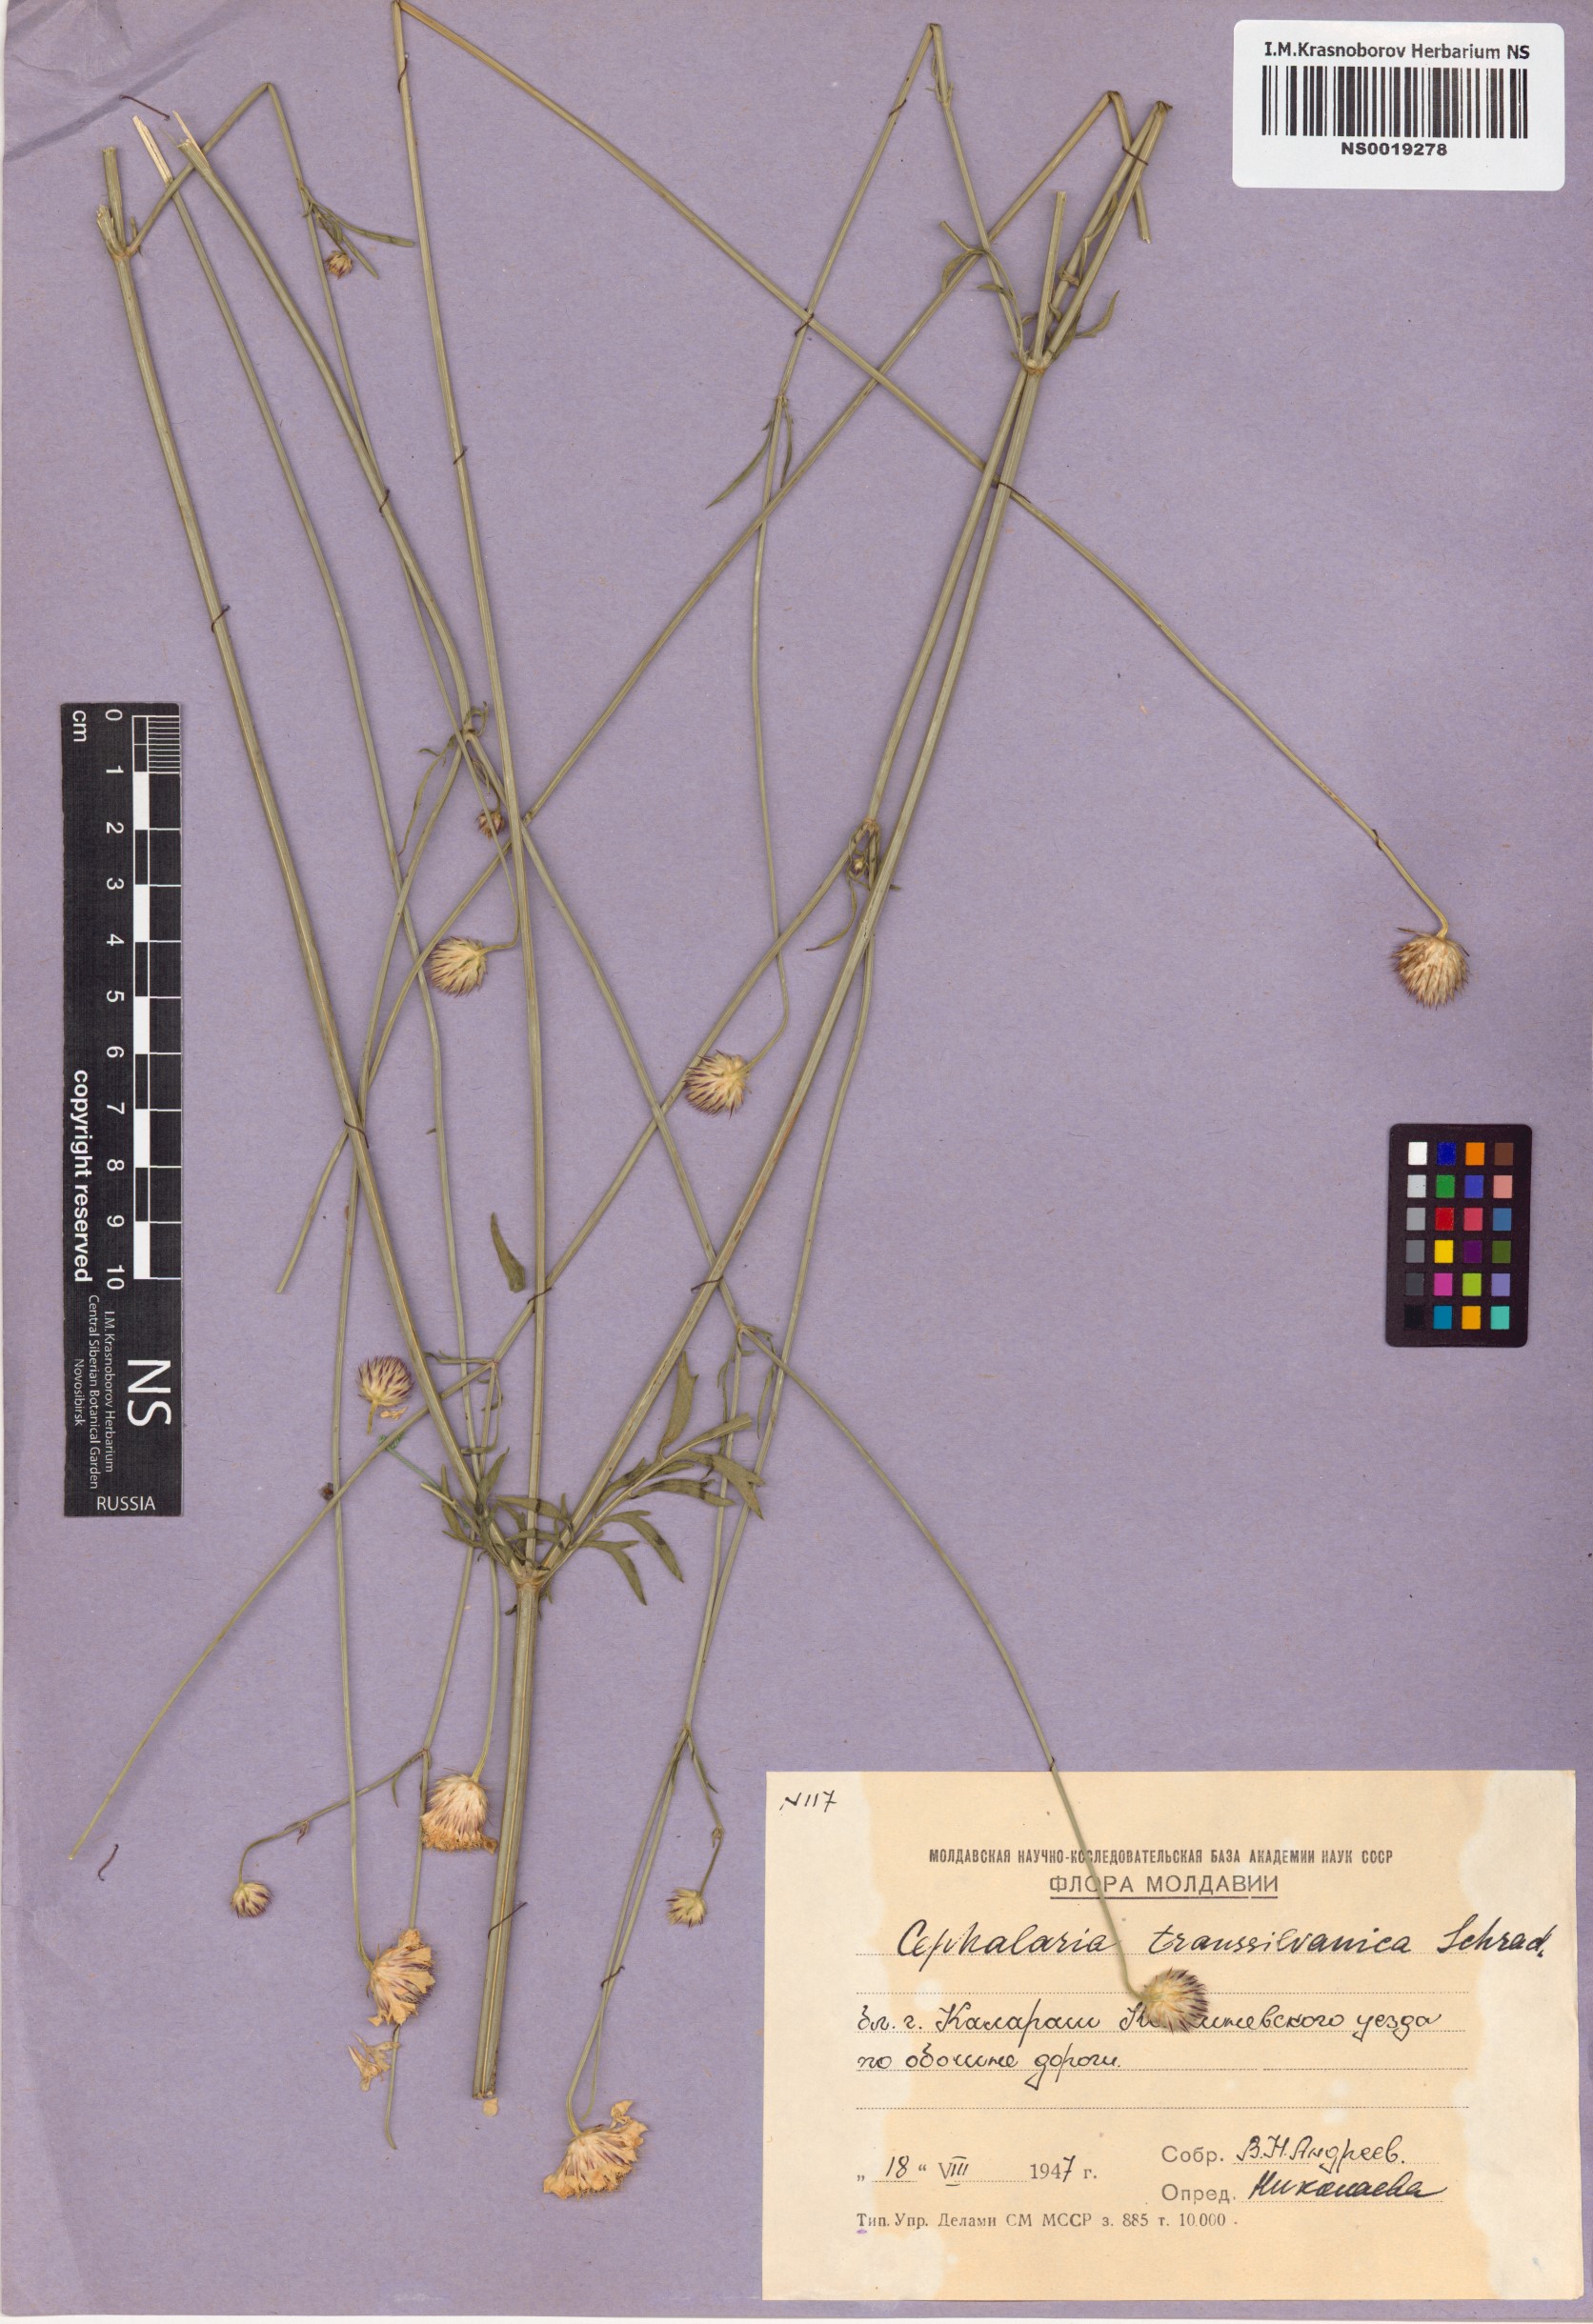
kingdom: Plantae
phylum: Tracheophyta
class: Magnoliopsida
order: Dipsacales
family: Caprifoliaceae
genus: Cephalaria
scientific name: Cephalaria transsylvanica
